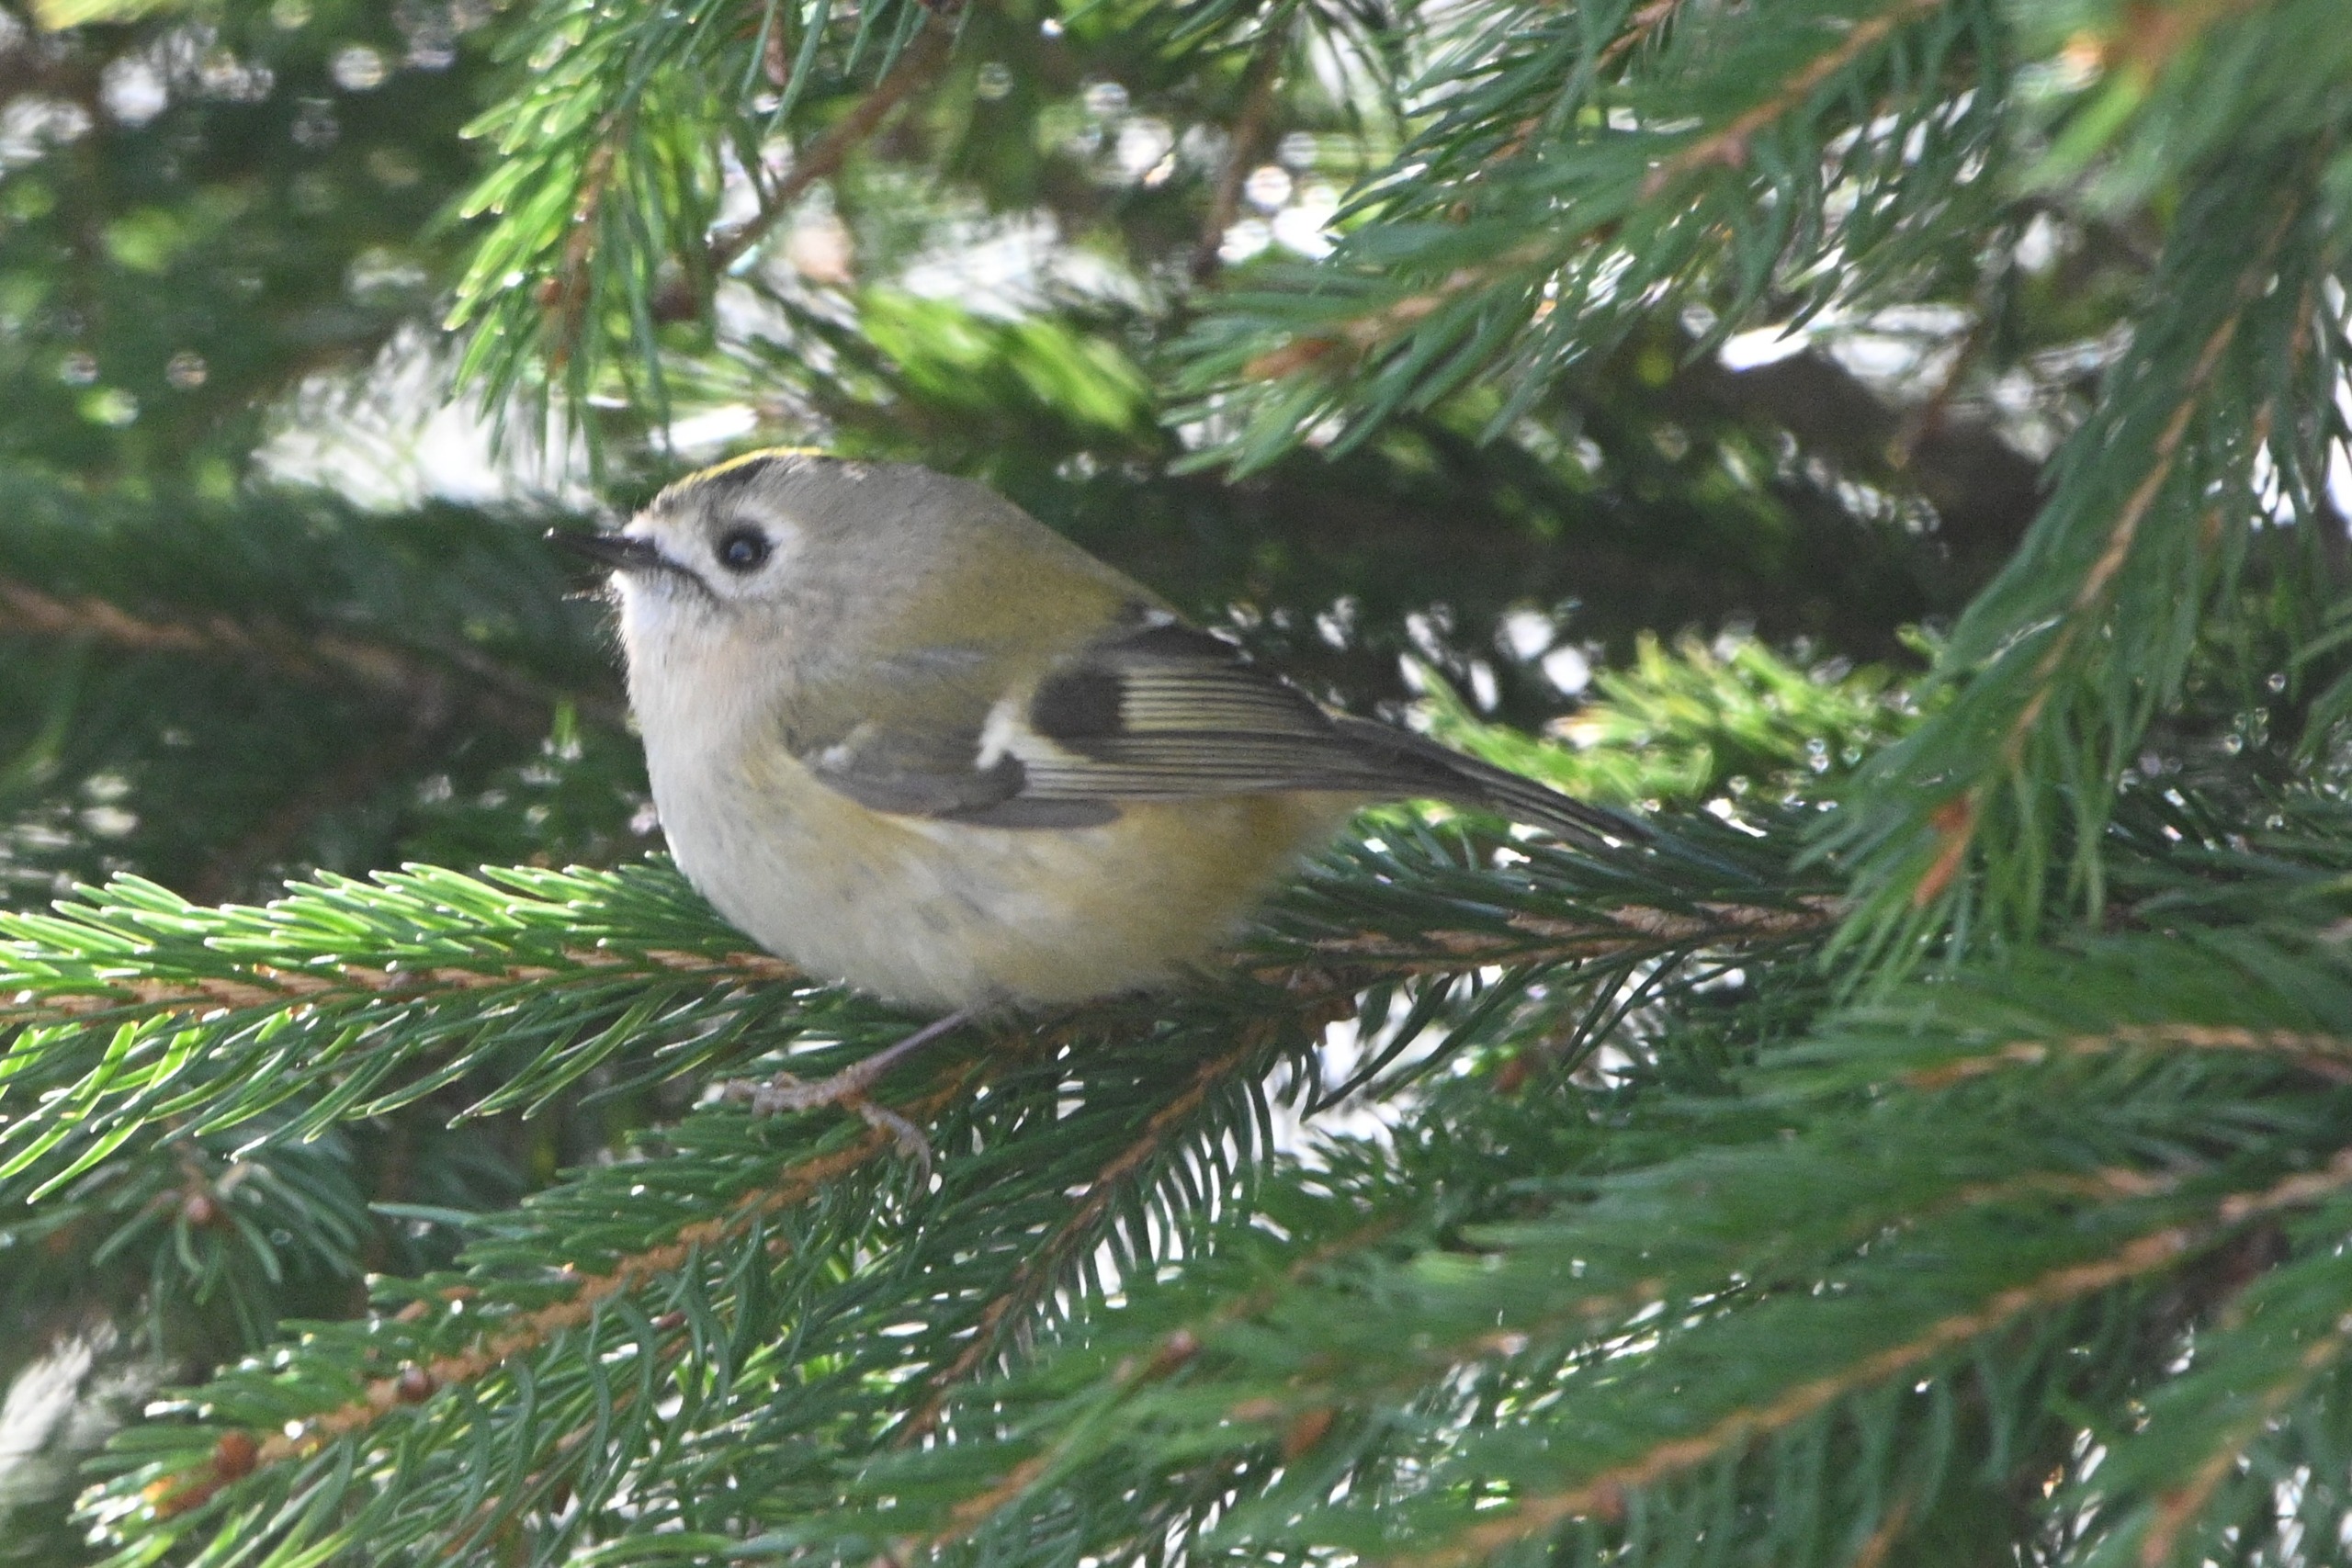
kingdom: Animalia
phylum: Chordata
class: Aves
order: Passeriformes
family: Regulidae
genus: Regulus
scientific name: Regulus regulus
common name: Fuglekonge
